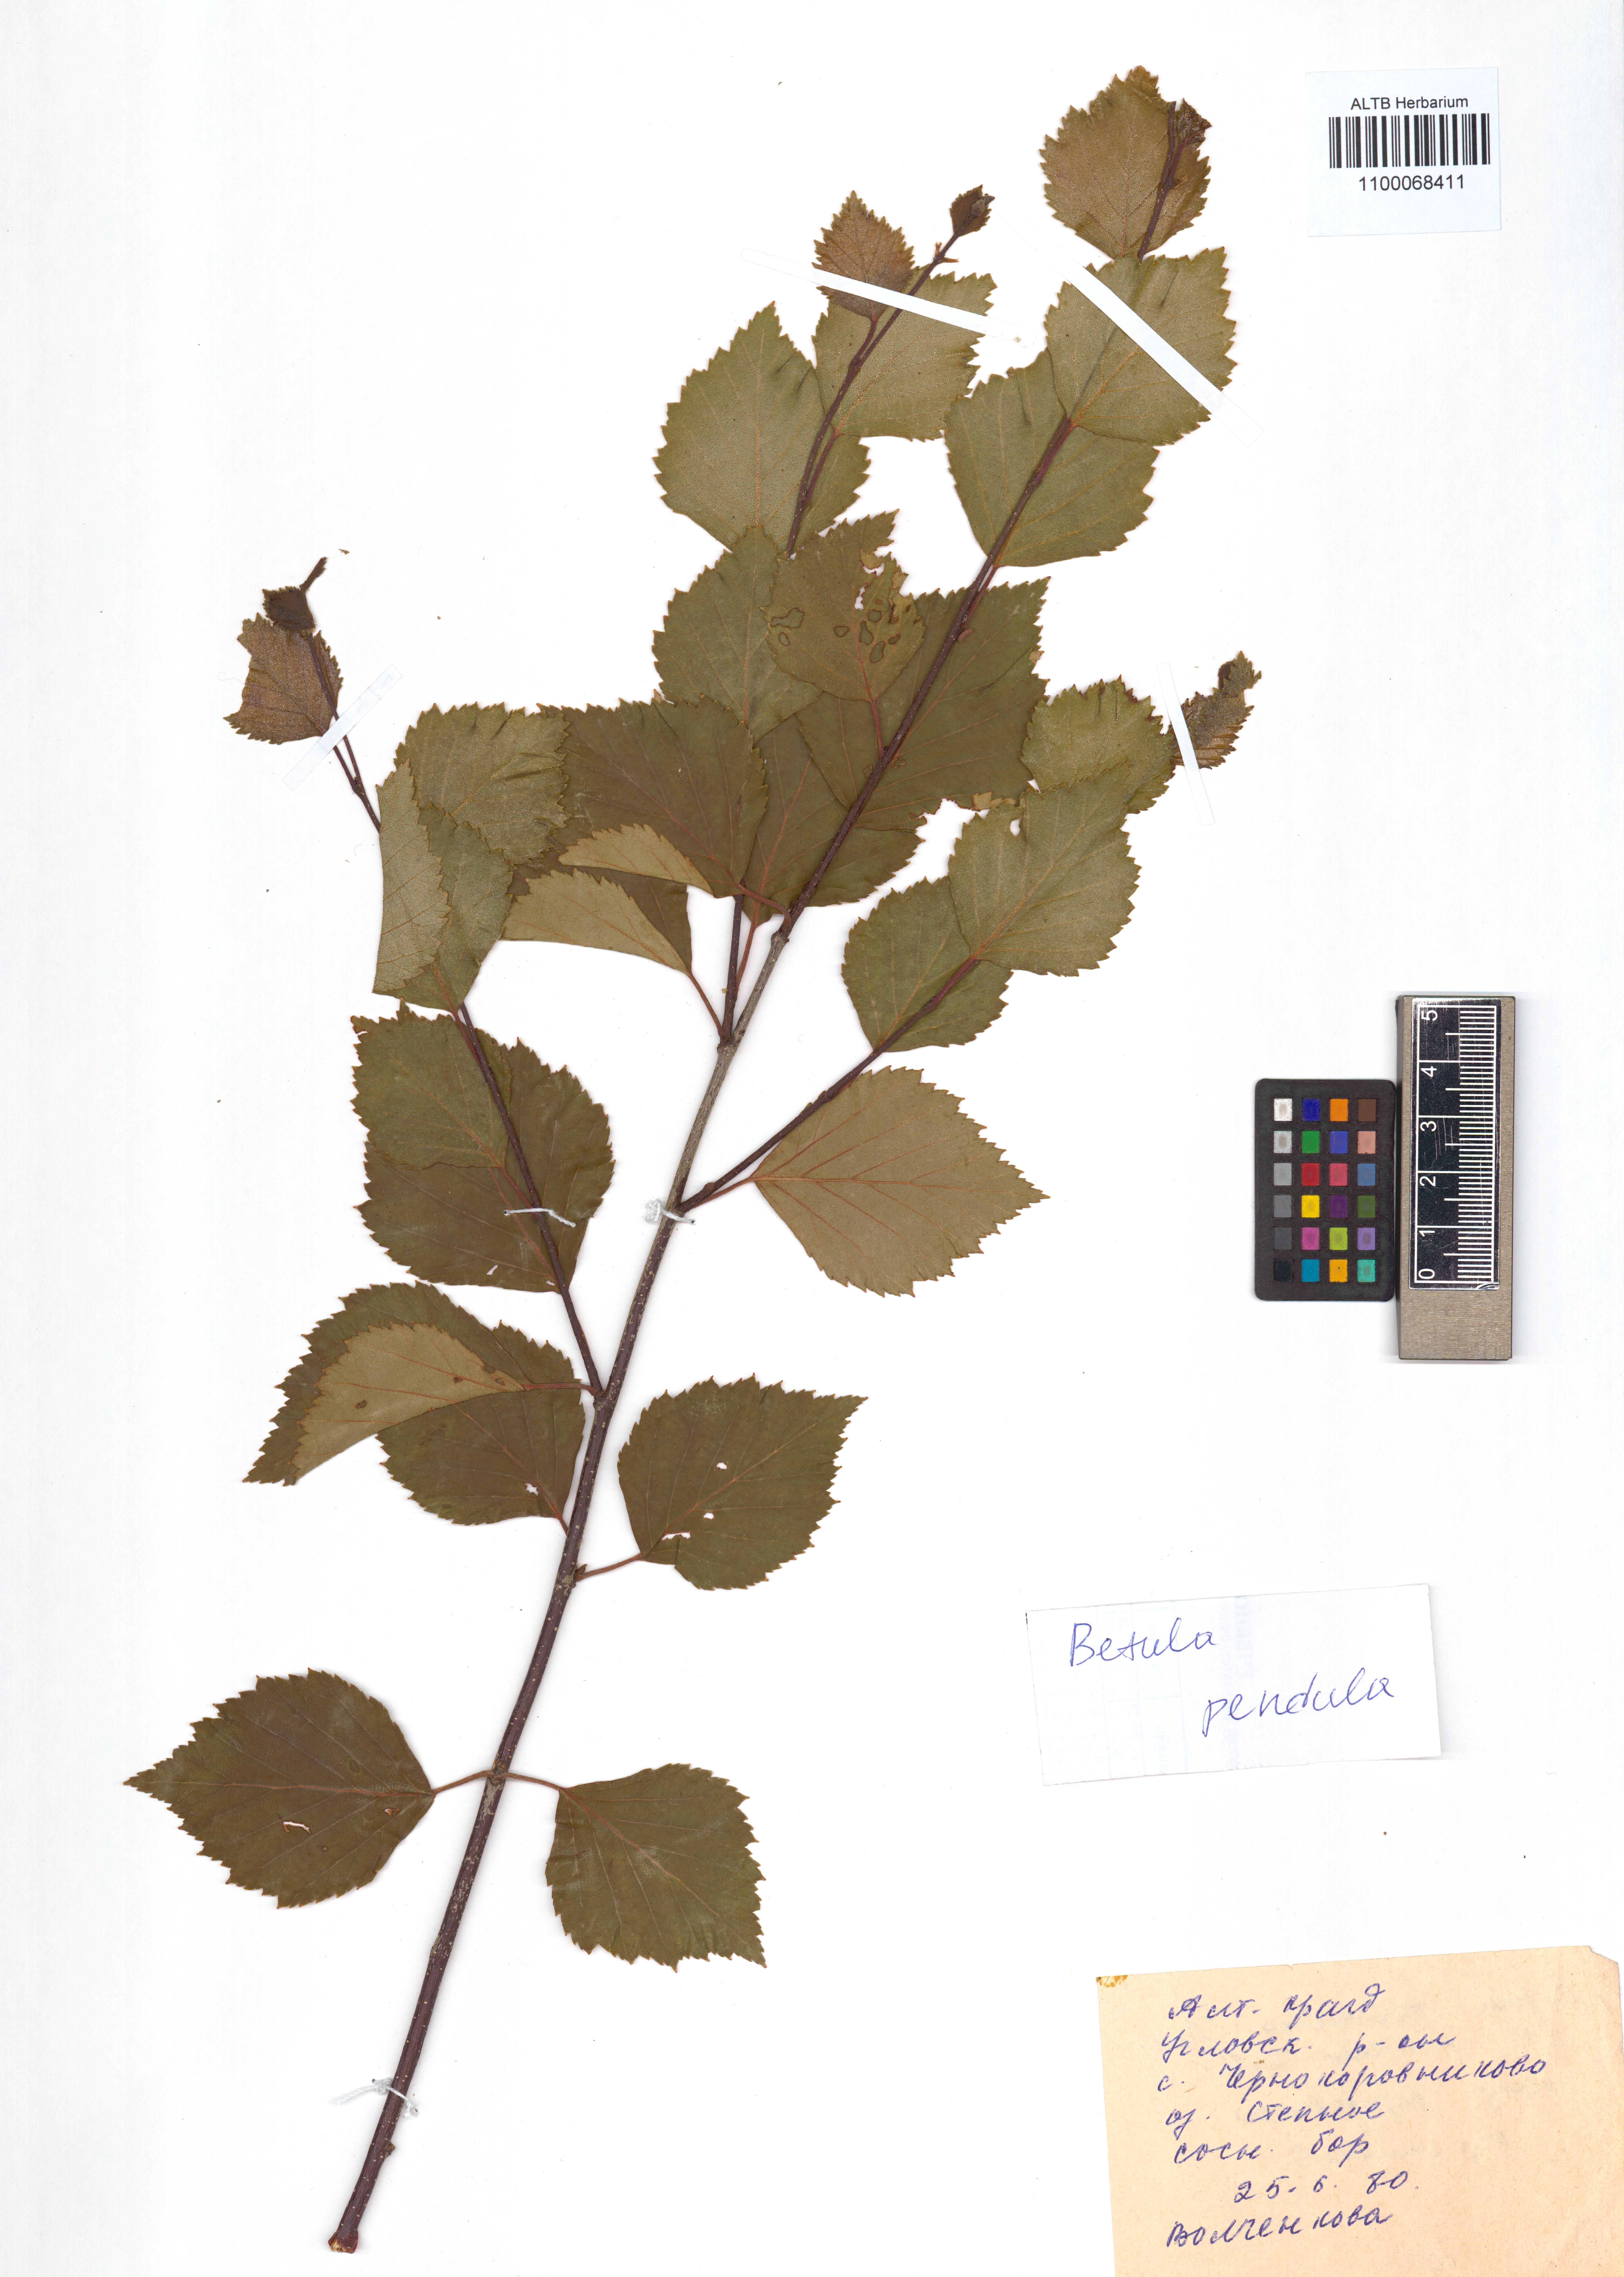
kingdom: Plantae
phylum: Tracheophyta
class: Magnoliopsida
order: Fagales
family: Betulaceae
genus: Betula
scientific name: Betula pendula
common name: Silver birch
